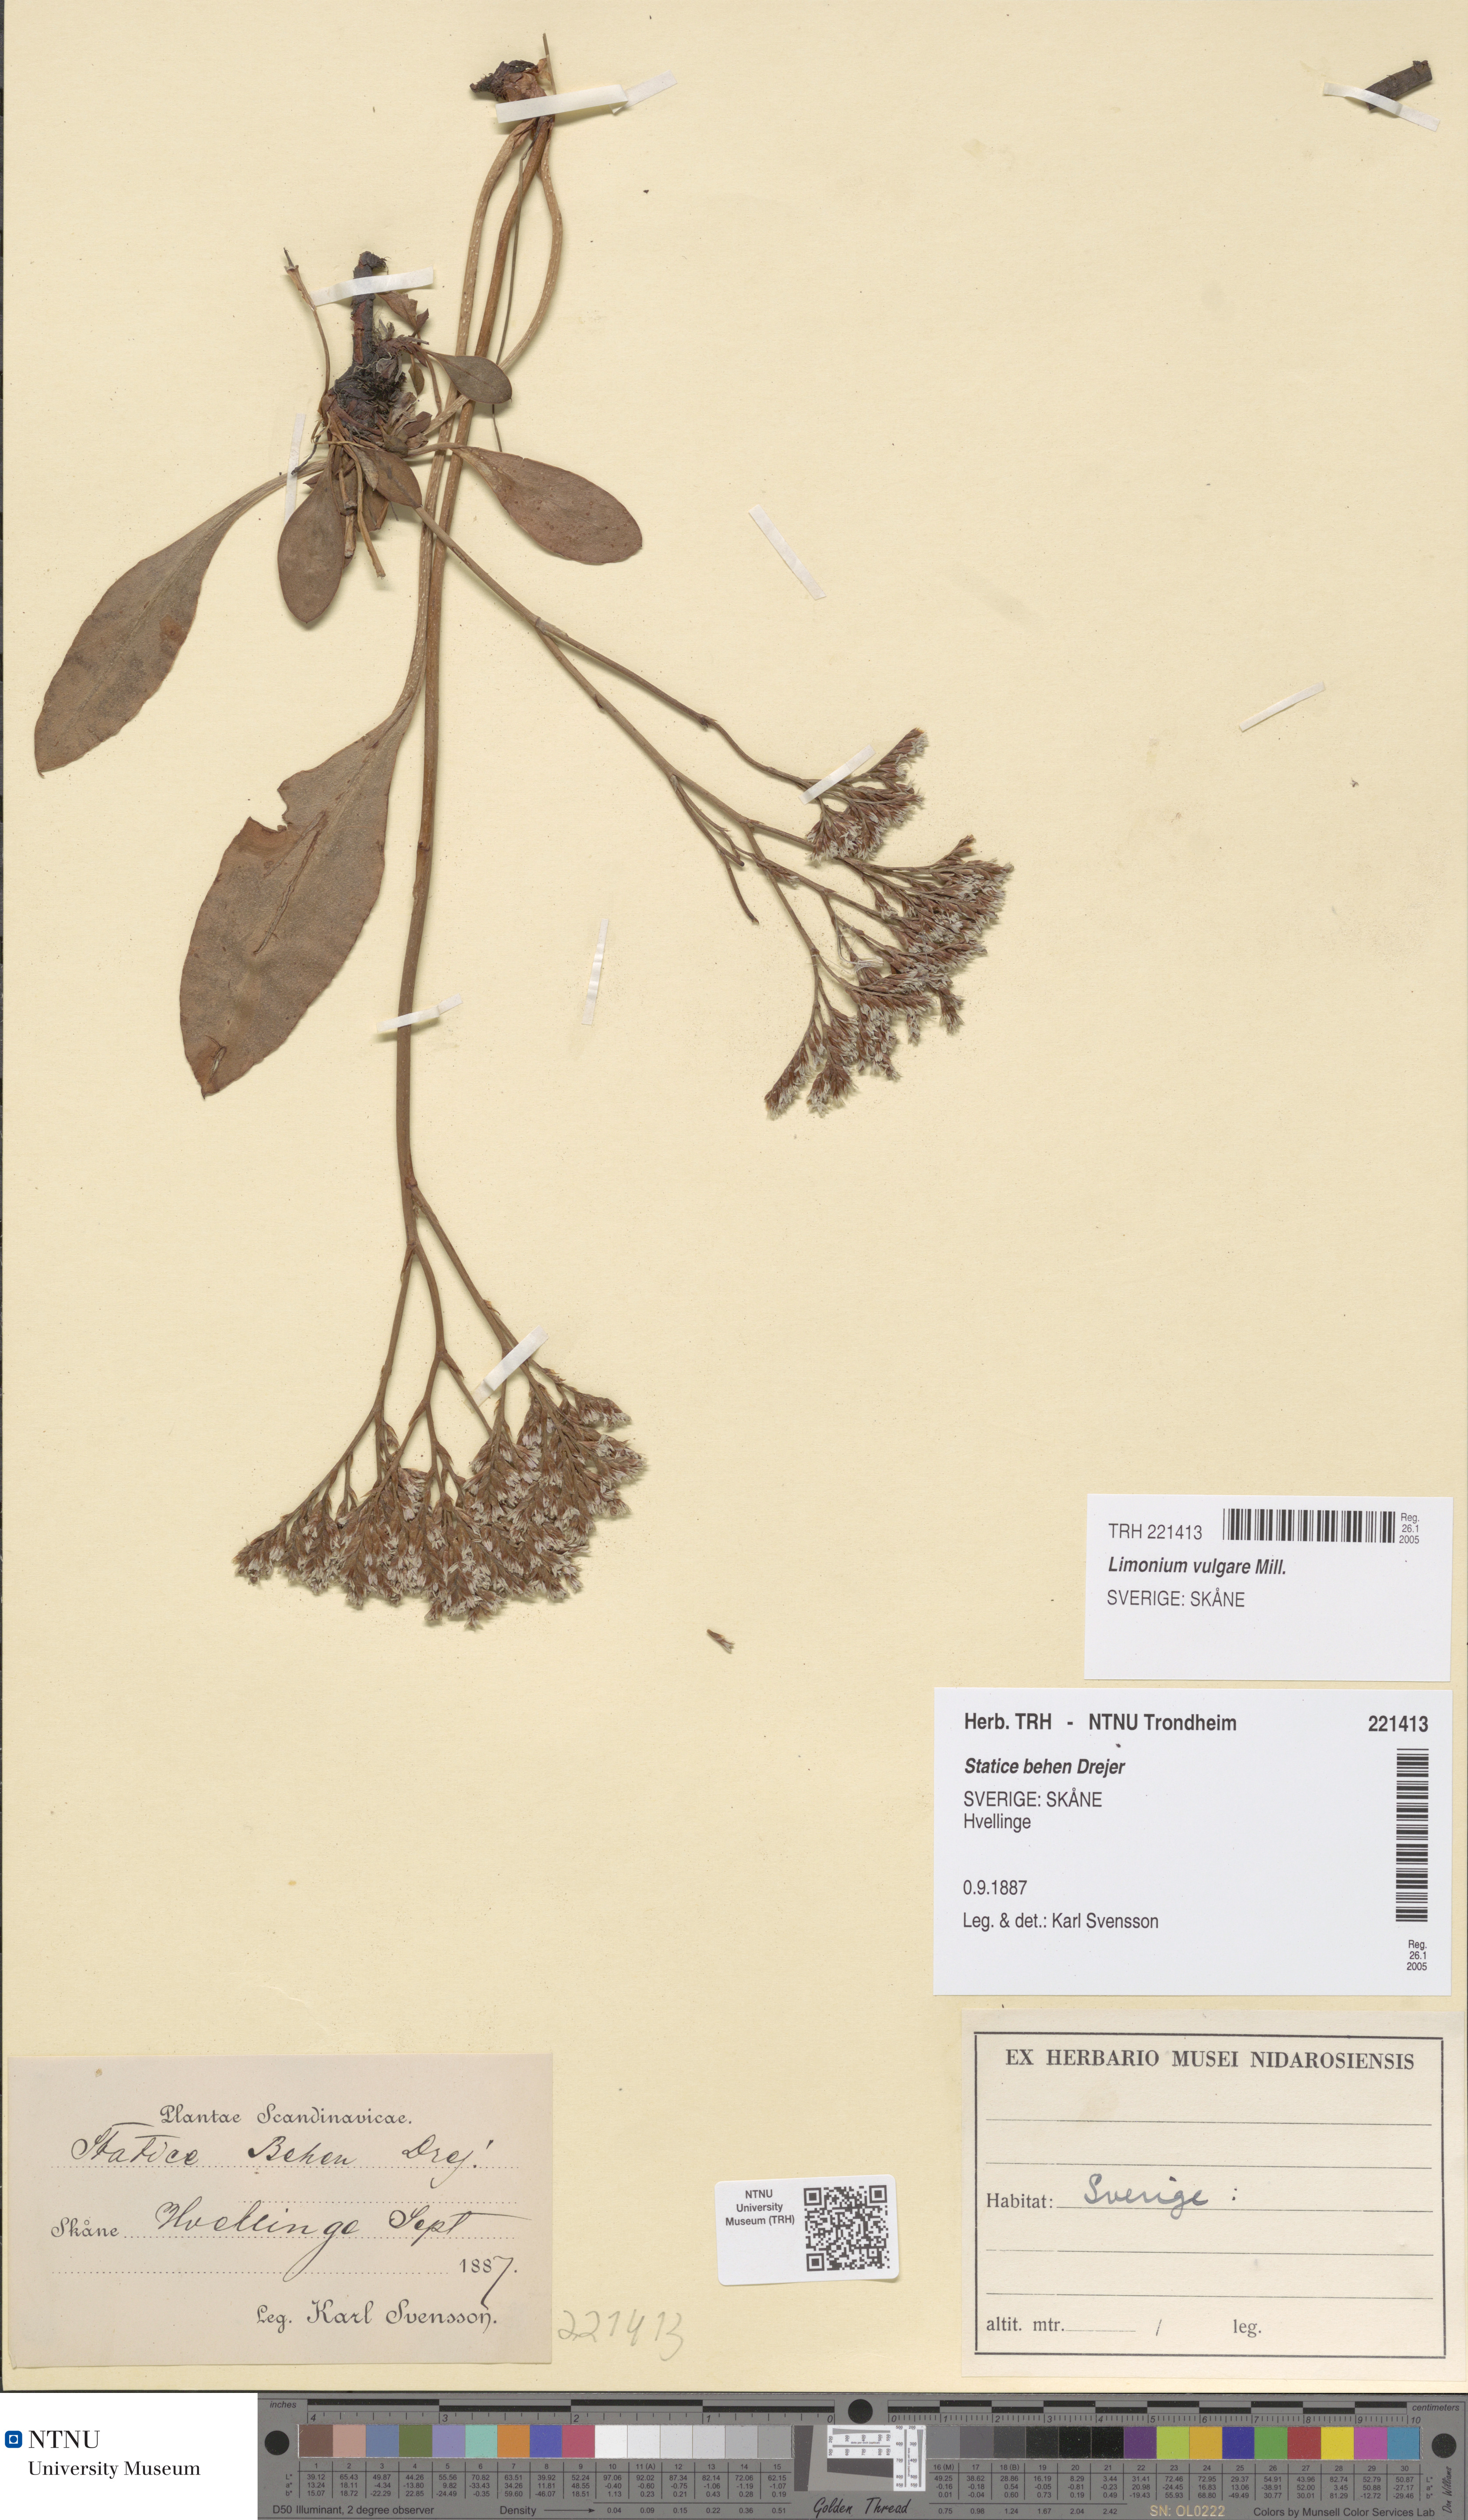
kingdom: Plantae
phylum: Tracheophyta
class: Magnoliopsida
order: Caryophyllales
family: Plumbaginaceae
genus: Limonium
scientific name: Limonium vulgare
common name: Common sea-lavender
